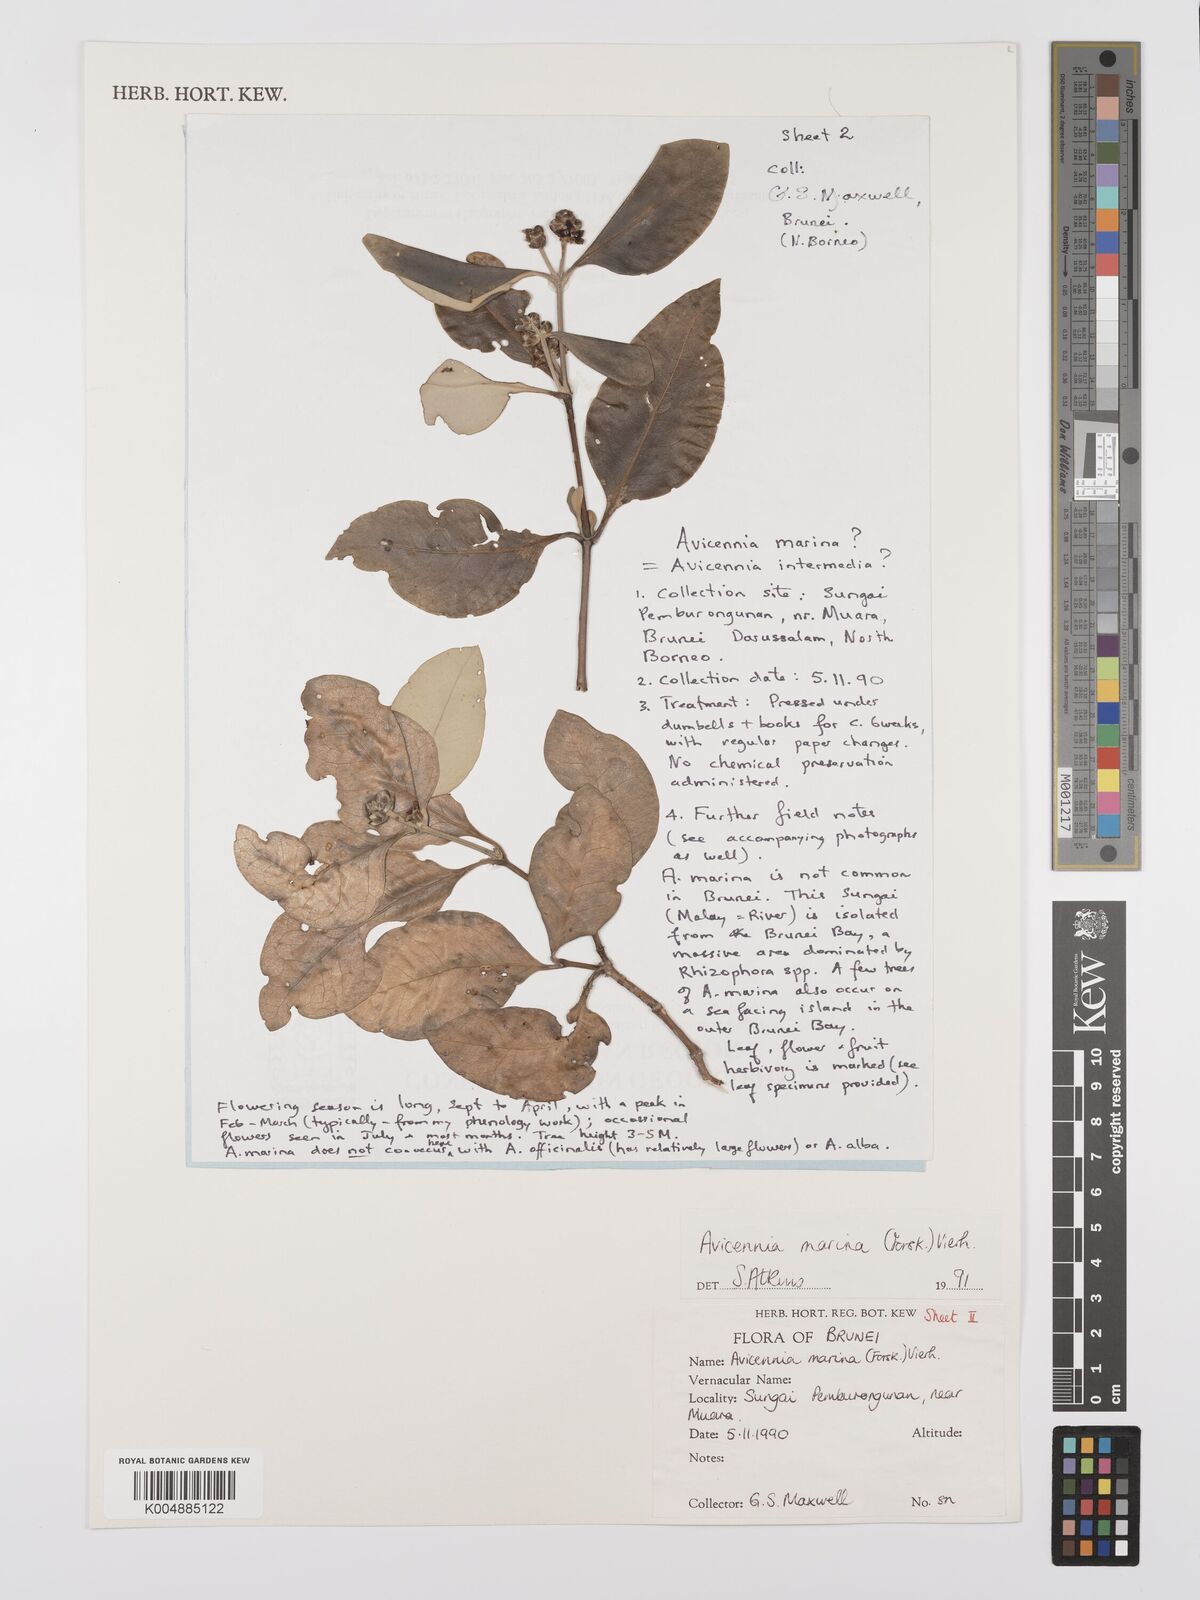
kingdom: Plantae
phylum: Tracheophyta
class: Magnoliopsida
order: Lamiales
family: Acanthaceae
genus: Avicennia
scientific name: Avicennia marina
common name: Gray mangrove
